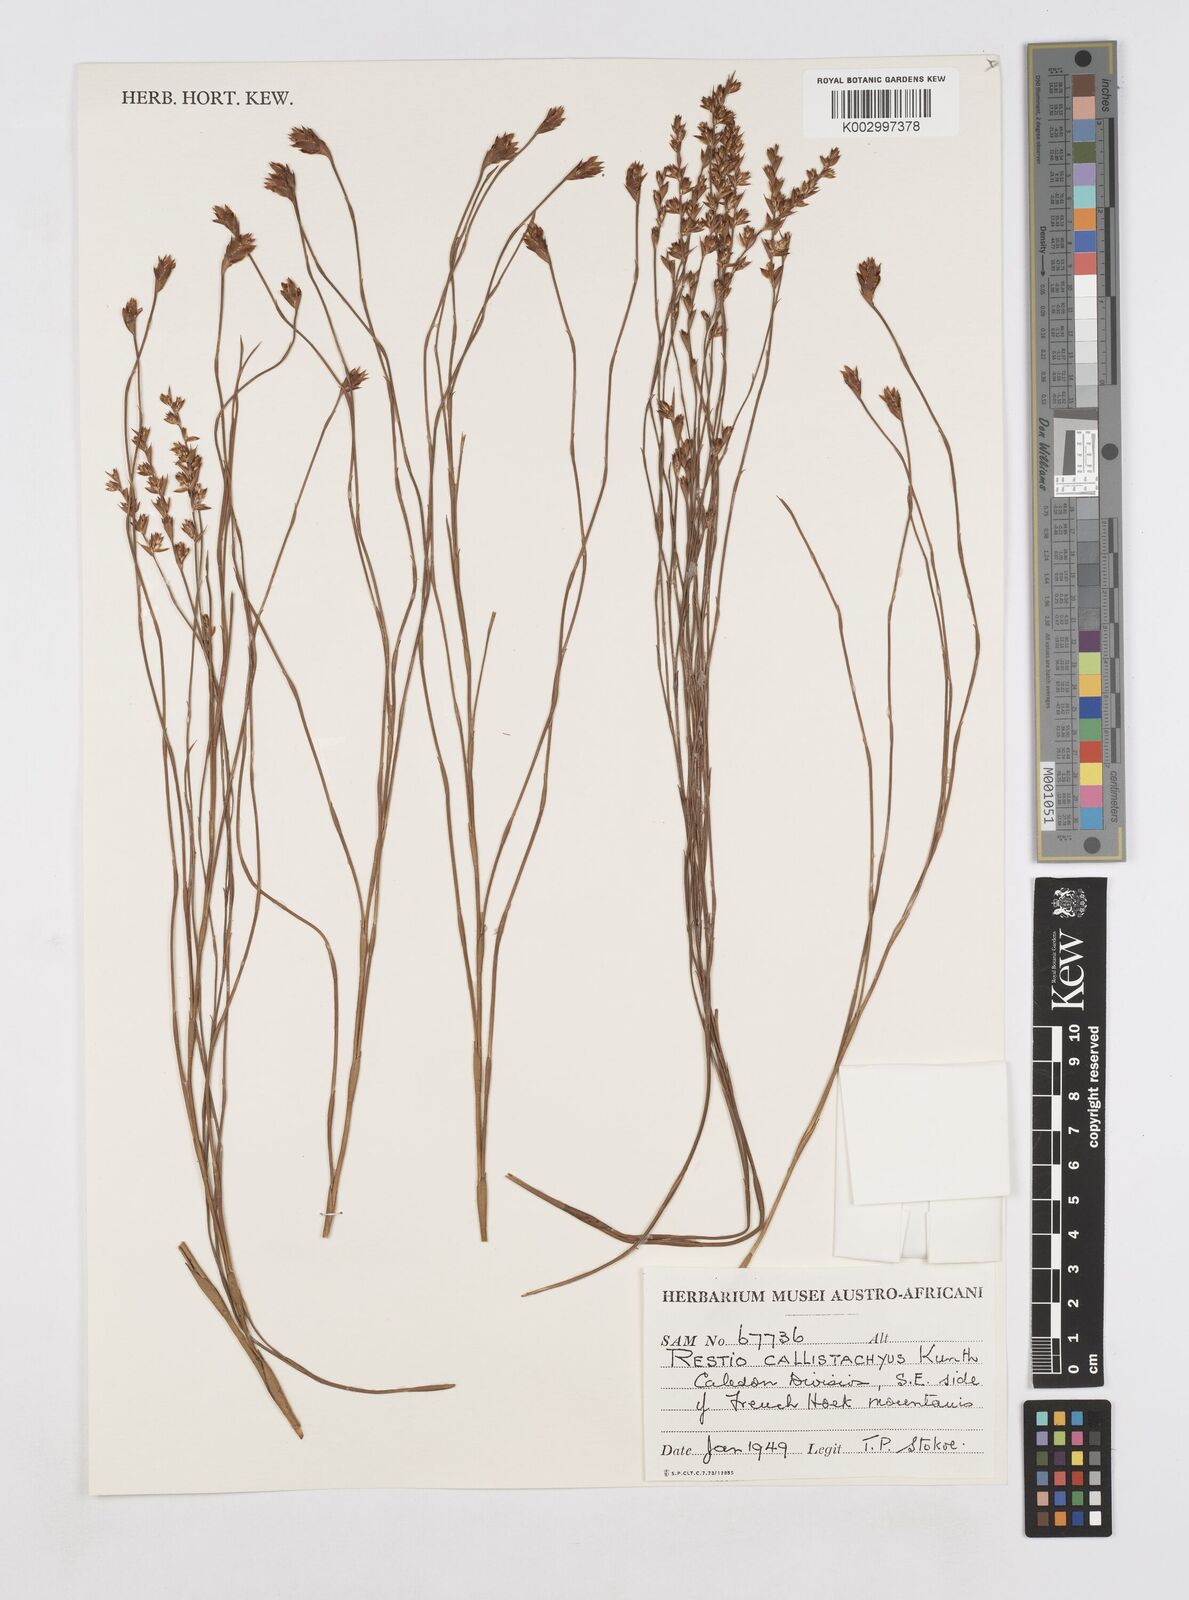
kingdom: Plantae
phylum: Tracheophyta
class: Liliopsida
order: Poales
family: Restionaceae
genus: Platycaulos
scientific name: Platycaulos callistachyus
